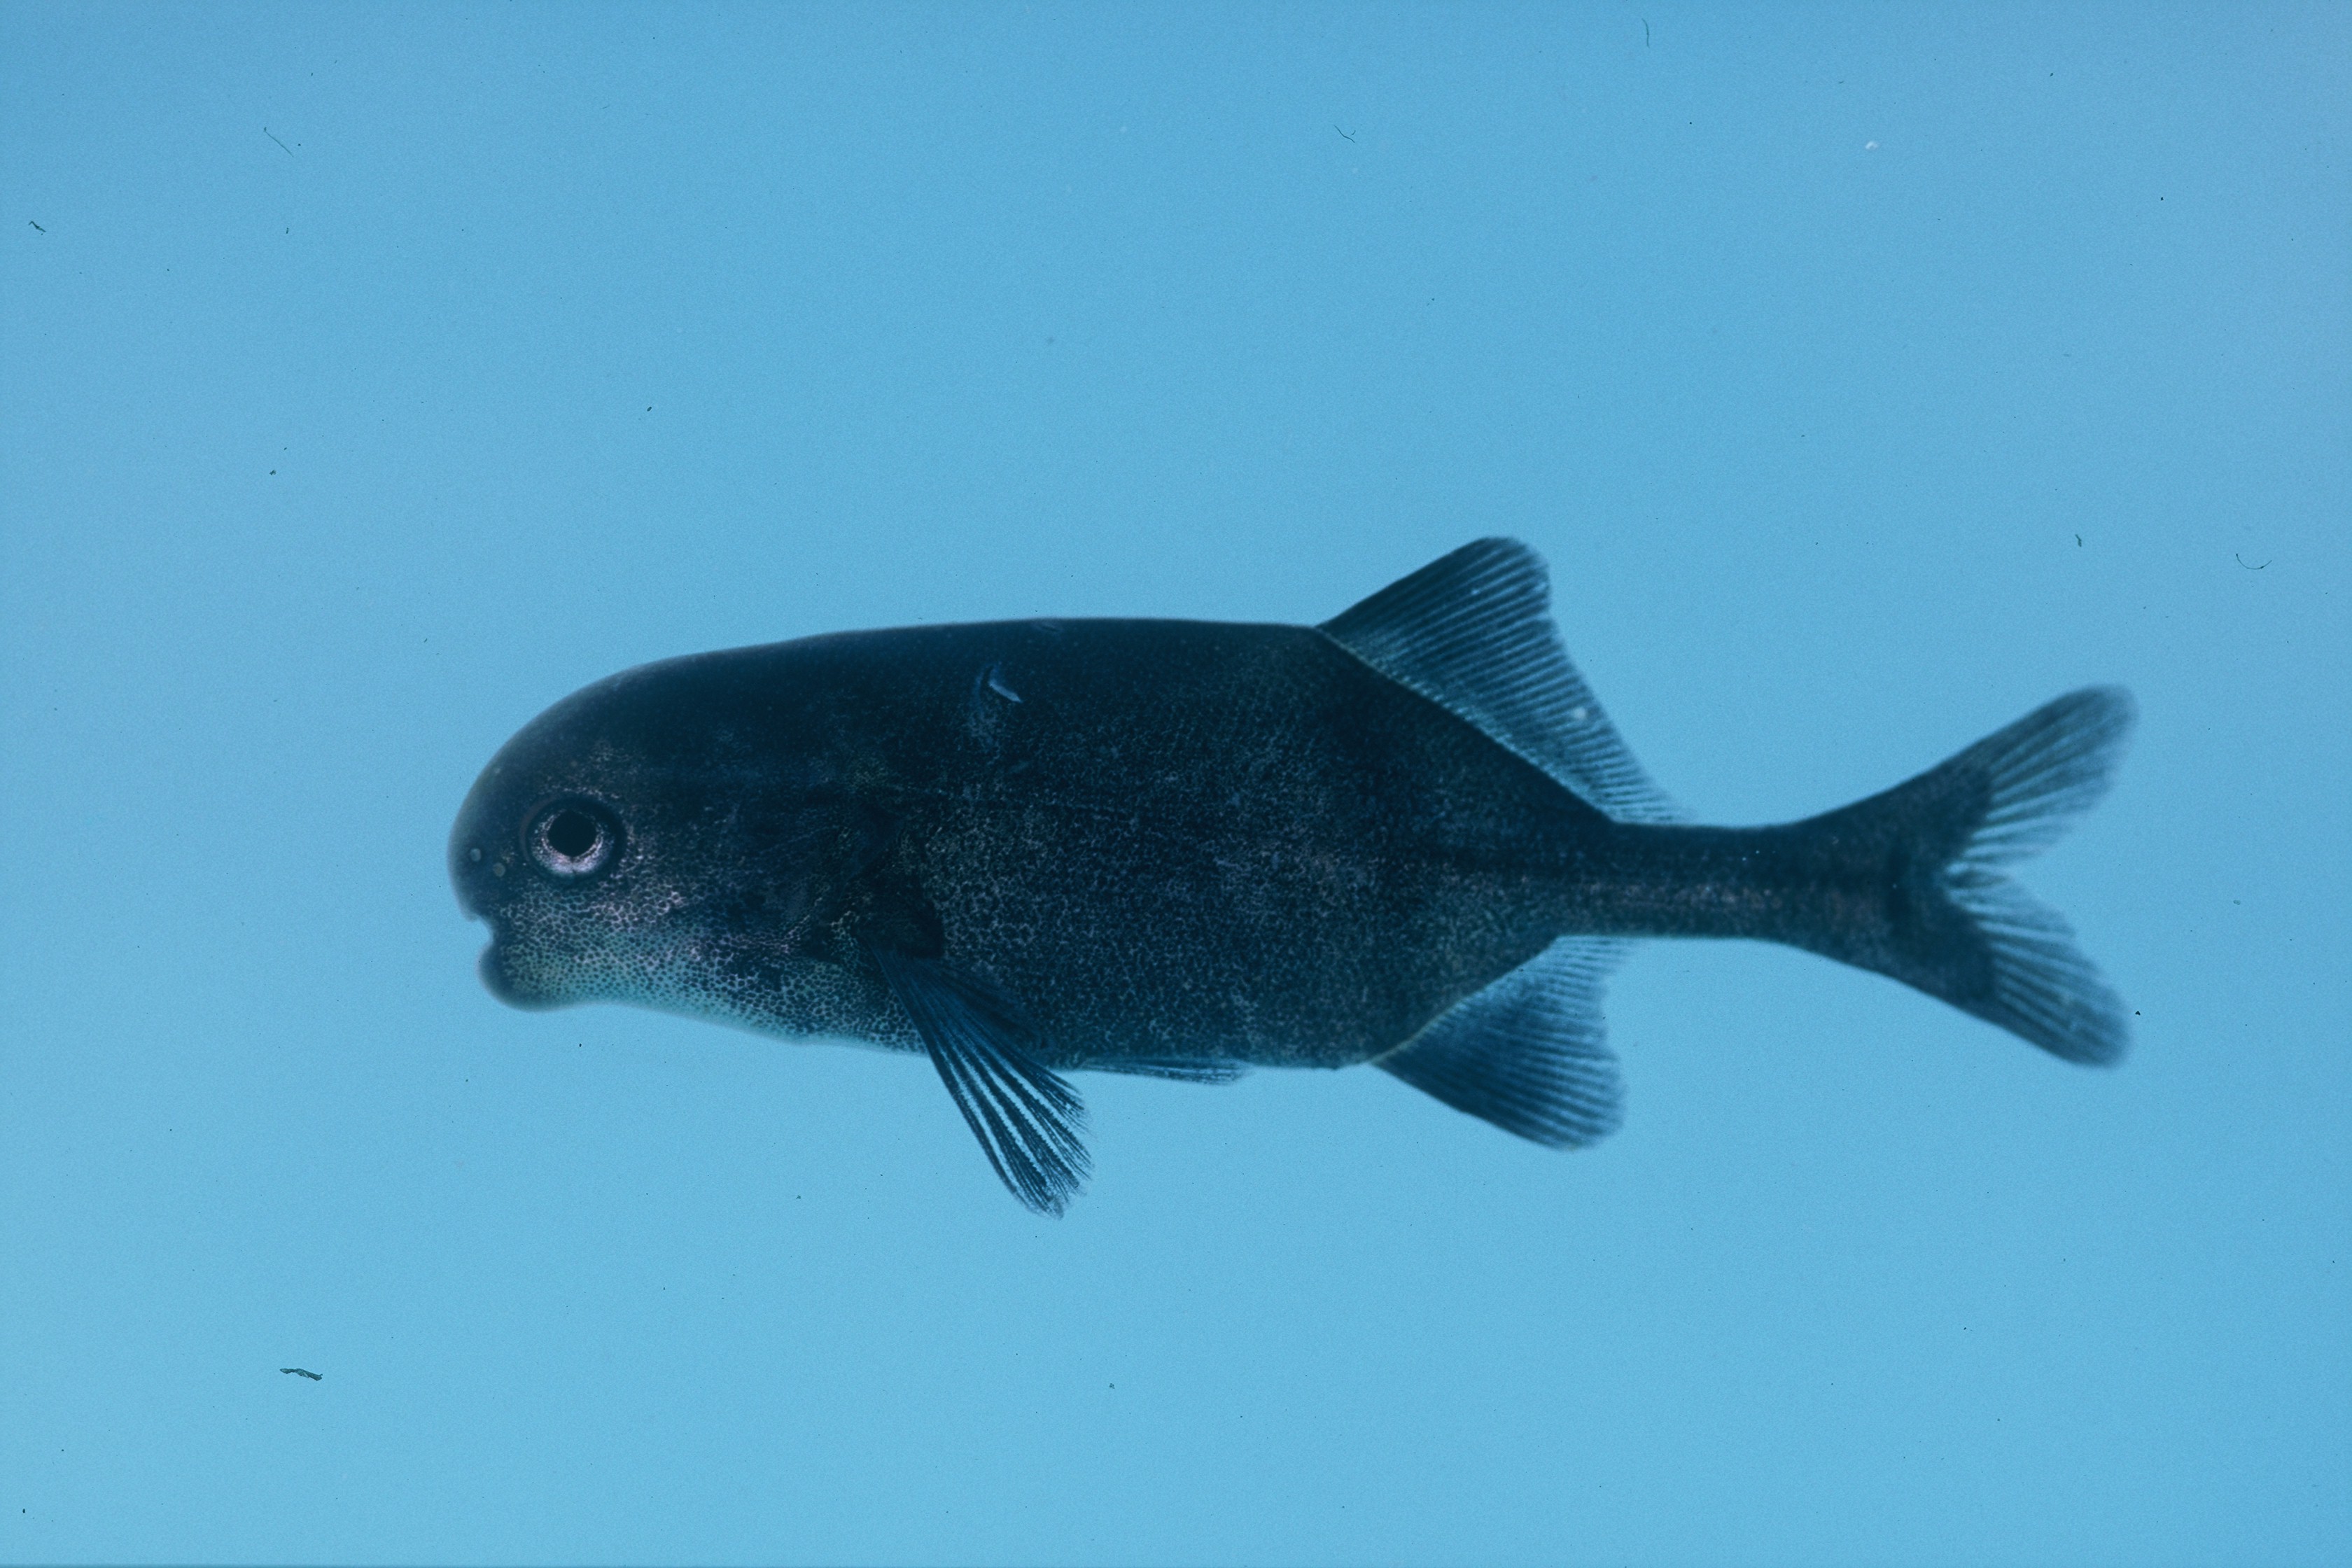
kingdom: Animalia
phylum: Chordata
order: Osteoglossiformes
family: Mormyridae
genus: Cyphomyrus
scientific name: Cyphomyrus discorhynchus
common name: Zambezi parrotfish
